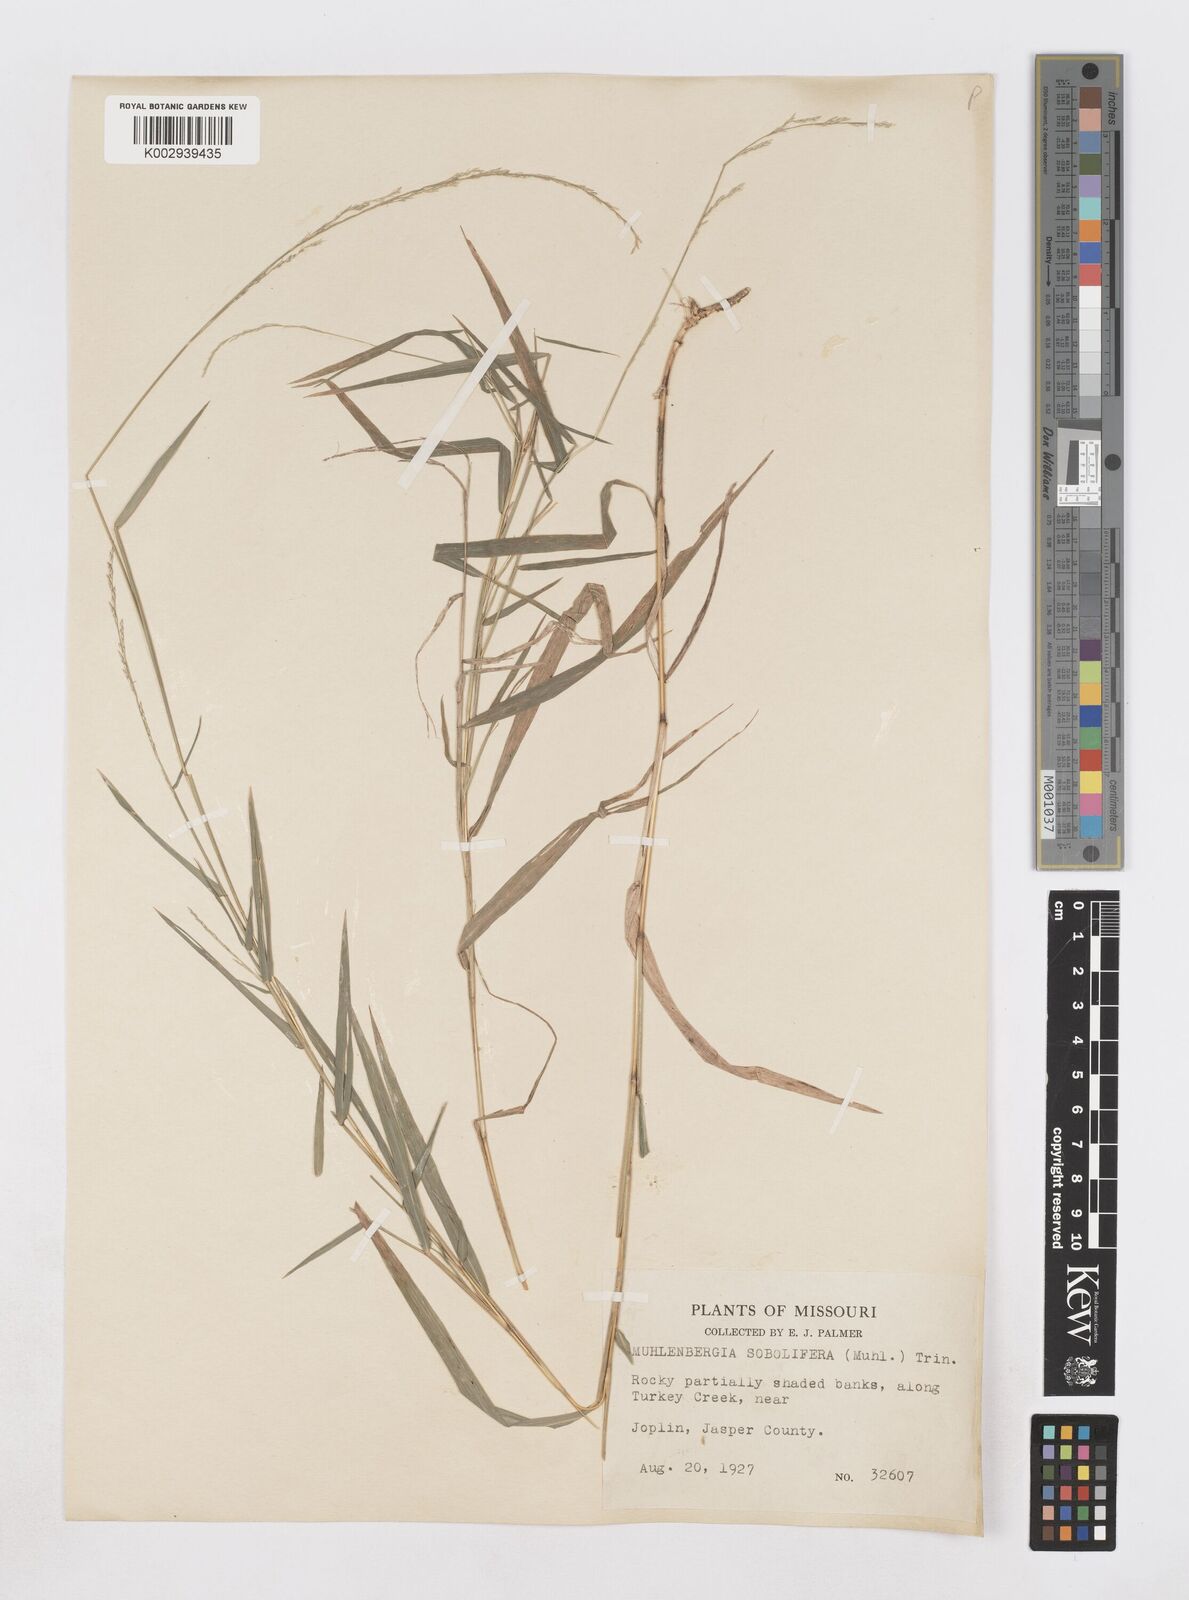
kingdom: Plantae
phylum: Tracheophyta
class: Liliopsida
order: Poales
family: Poaceae
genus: Muhlenbergia
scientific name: Muhlenbergia sobolifera
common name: Creeping muhly
